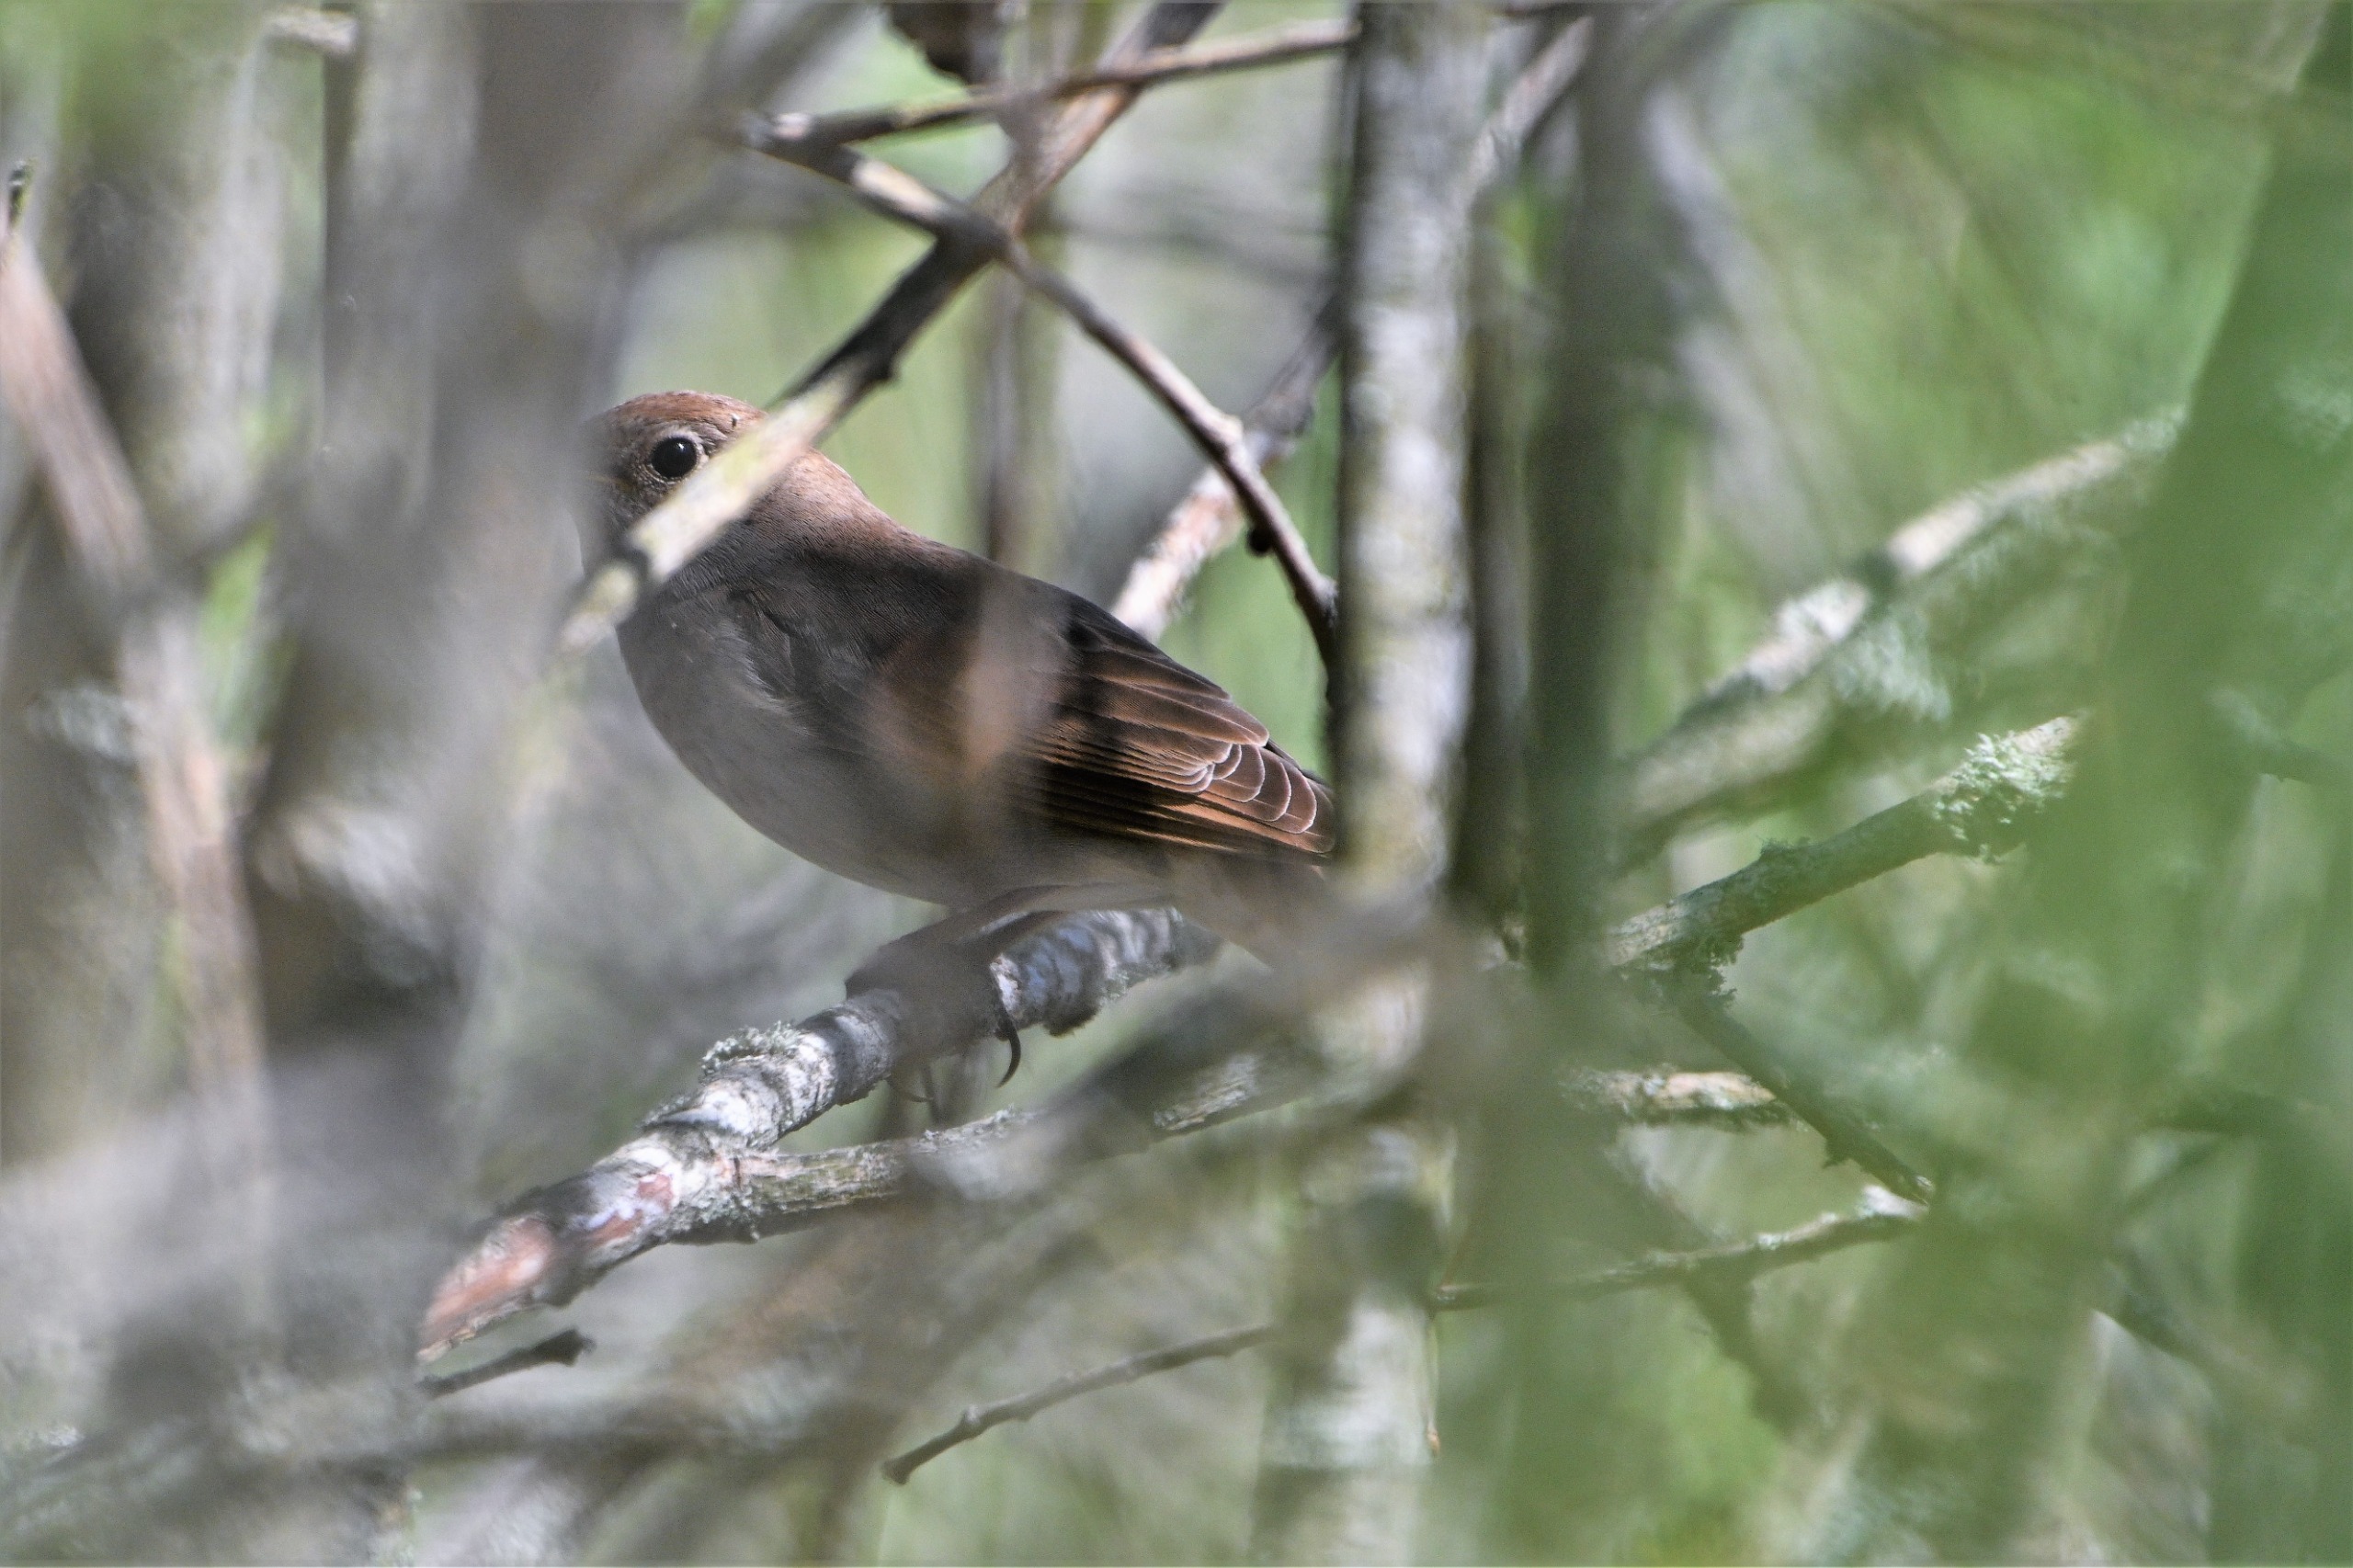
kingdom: Animalia
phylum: Chordata
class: Aves
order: Passeriformes
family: Muscicapidae
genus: Luscinia
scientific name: Luscinia luscinia
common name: Nattergal
